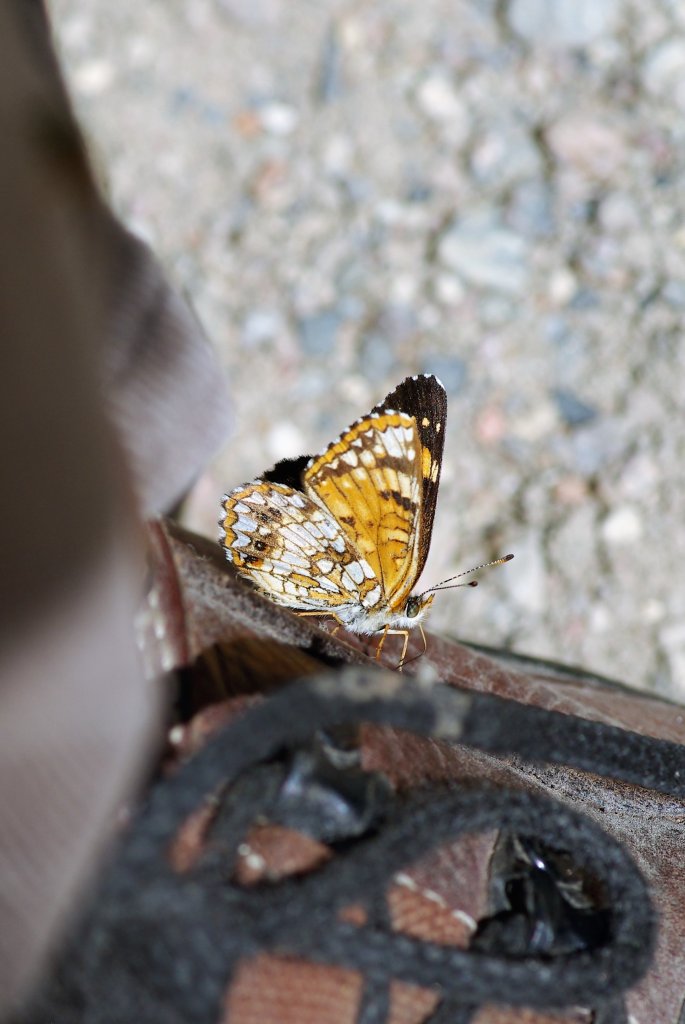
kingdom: Animalia
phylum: Arthropoda
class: Insecta
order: Lepidoptera
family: Nymphalidae
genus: Chlosyne
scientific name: Chlosyne nycteis
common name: Silvery Checkerspot
